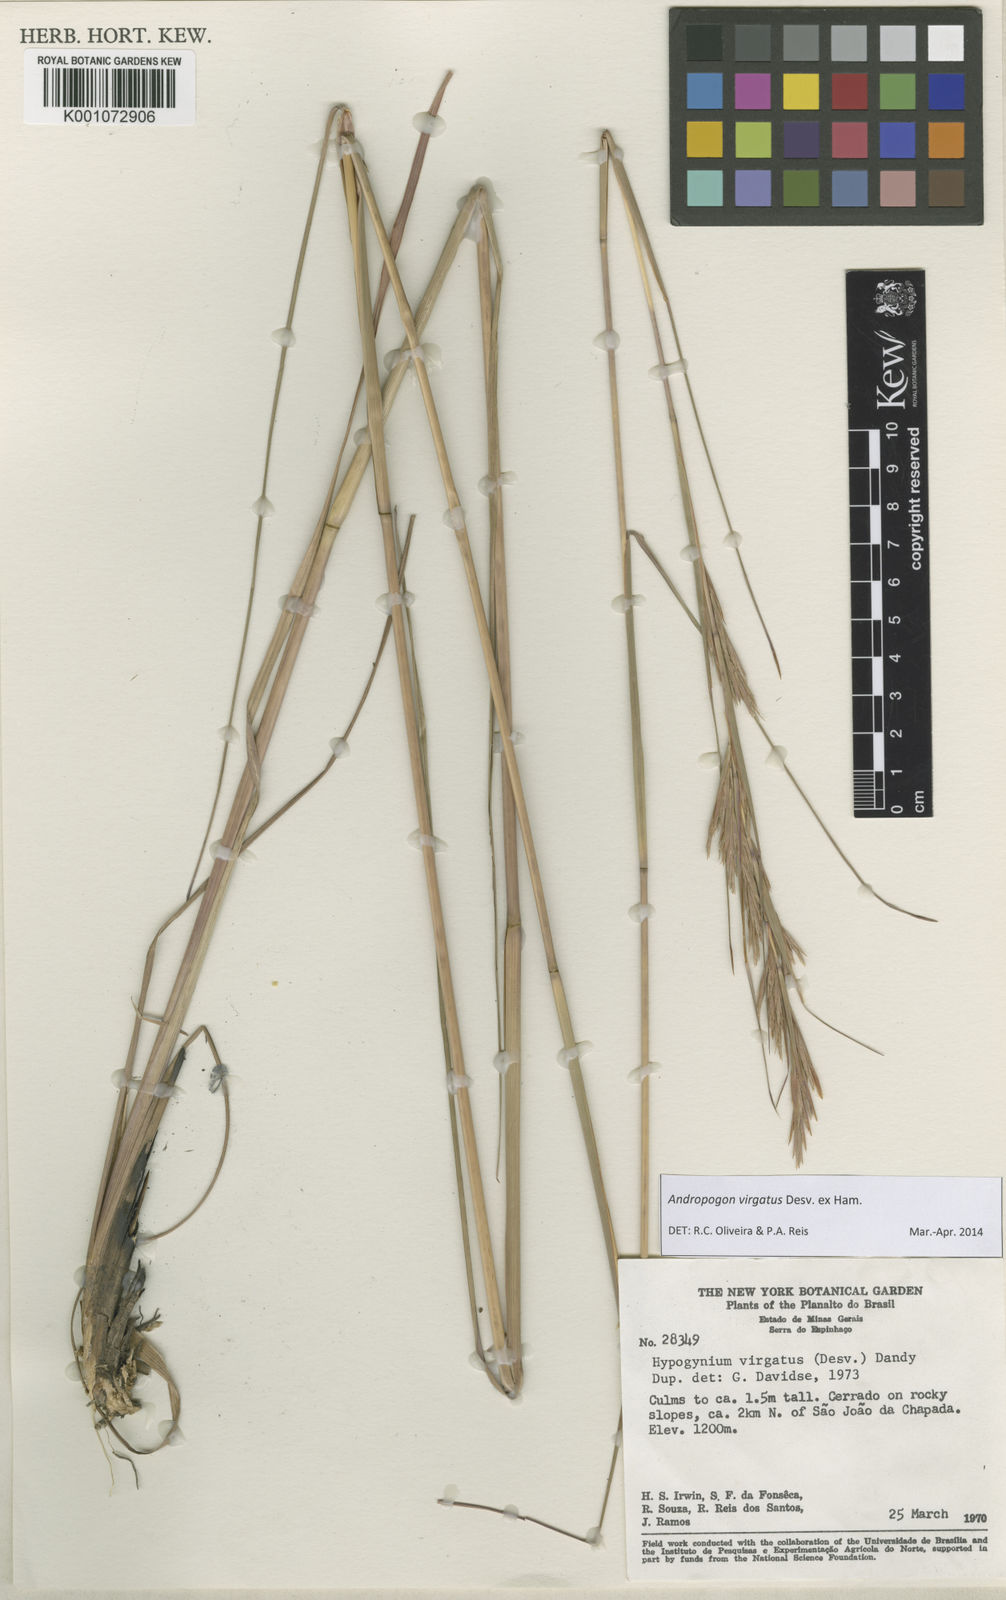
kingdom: Plantae
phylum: Tracheophyta
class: Liliopsida
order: Poales
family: Poaceae
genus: Andropogon
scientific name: Andropogon virgatus
